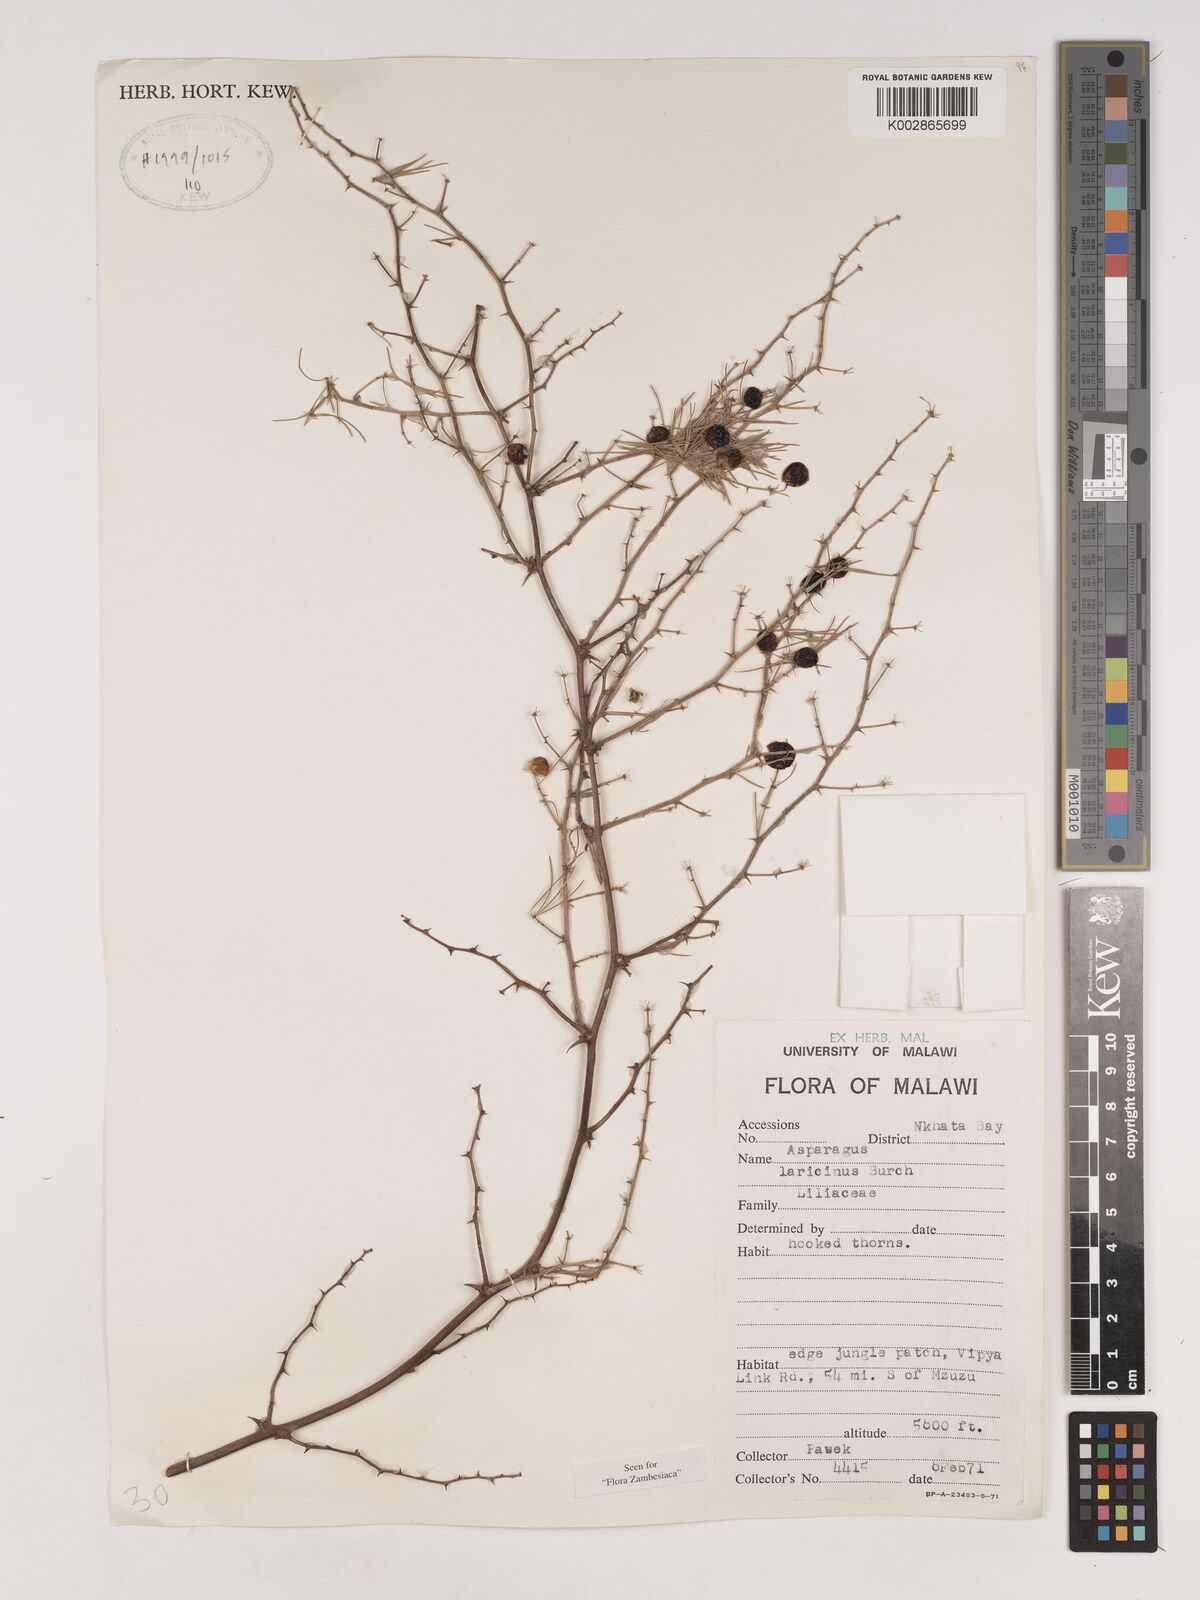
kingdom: Plantae
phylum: Tracheophyta
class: Liliopsida
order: Asparagales
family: Asparagaceae
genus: Asparagus
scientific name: Asparagus laricinus
